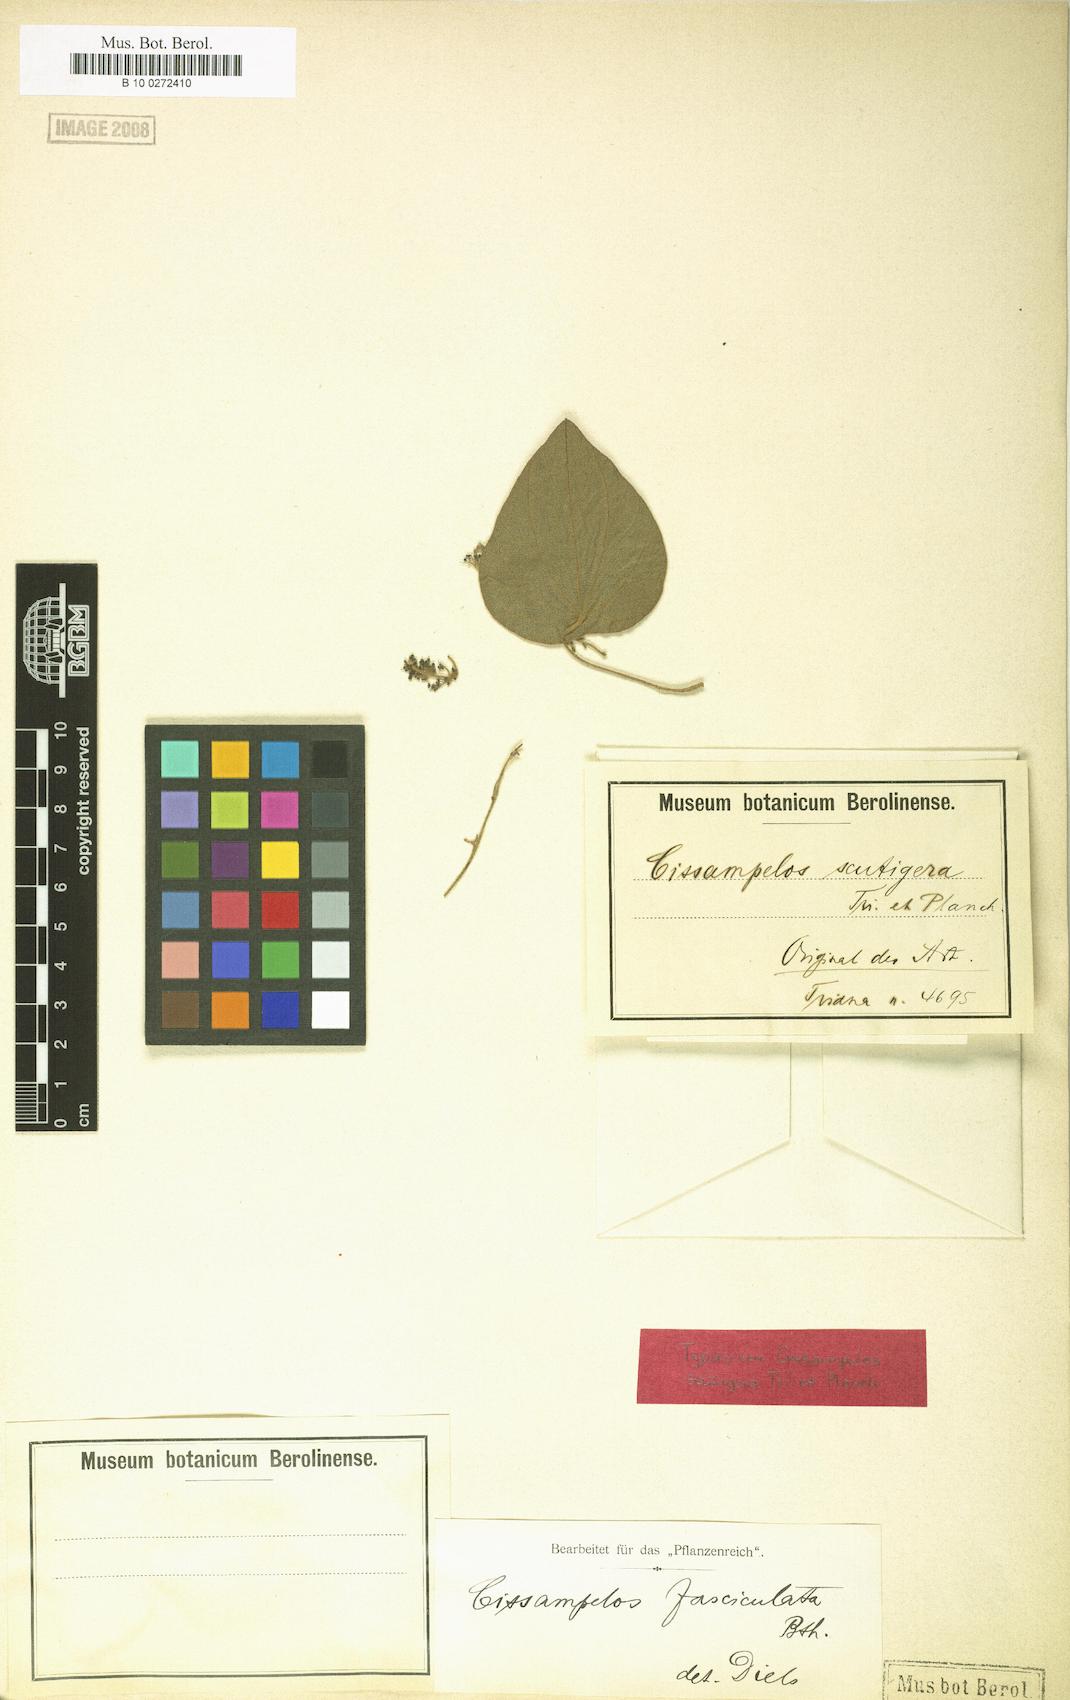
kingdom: Plantae
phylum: Tracheophyta
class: Magnoliopsida
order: Ranunculales
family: Menispermaceae
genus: Cissampelos
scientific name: Cissampelos fasciculata
